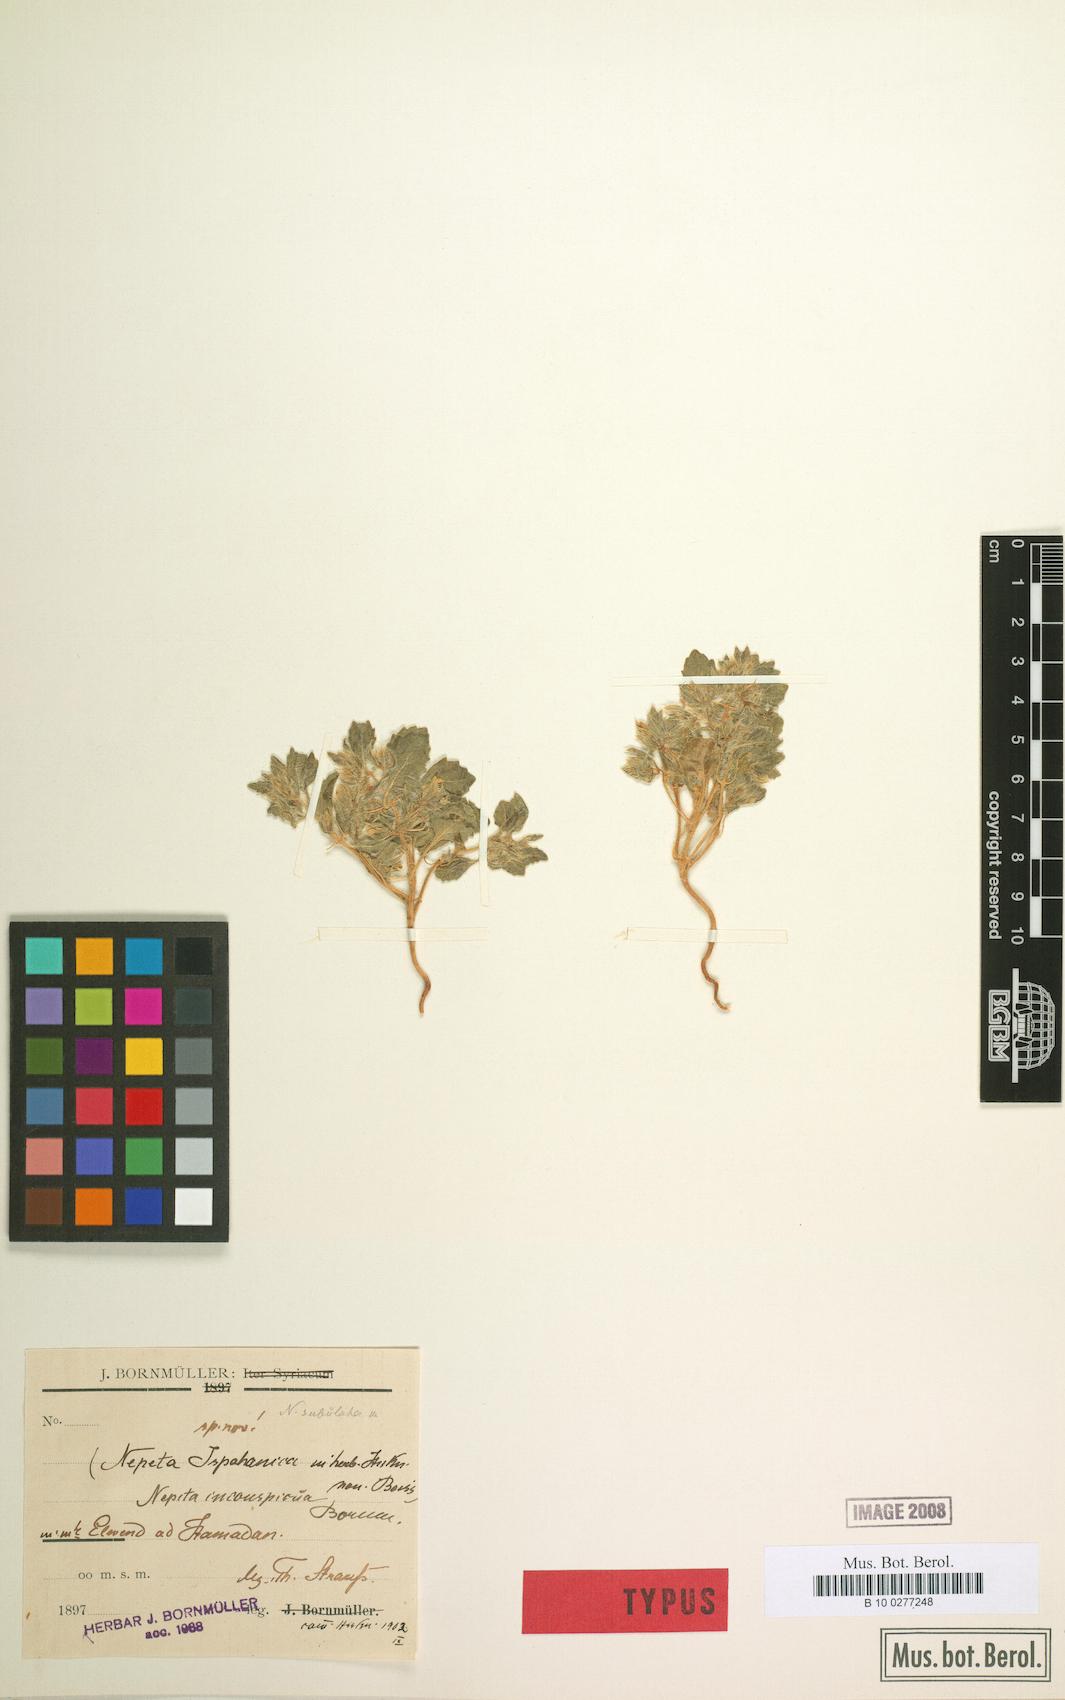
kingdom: Plantae
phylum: Tracheophyta
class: Magnoliopsida
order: Lamiales
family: Lamiaceae
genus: Nepeta
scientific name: Nepeta inconspicua
